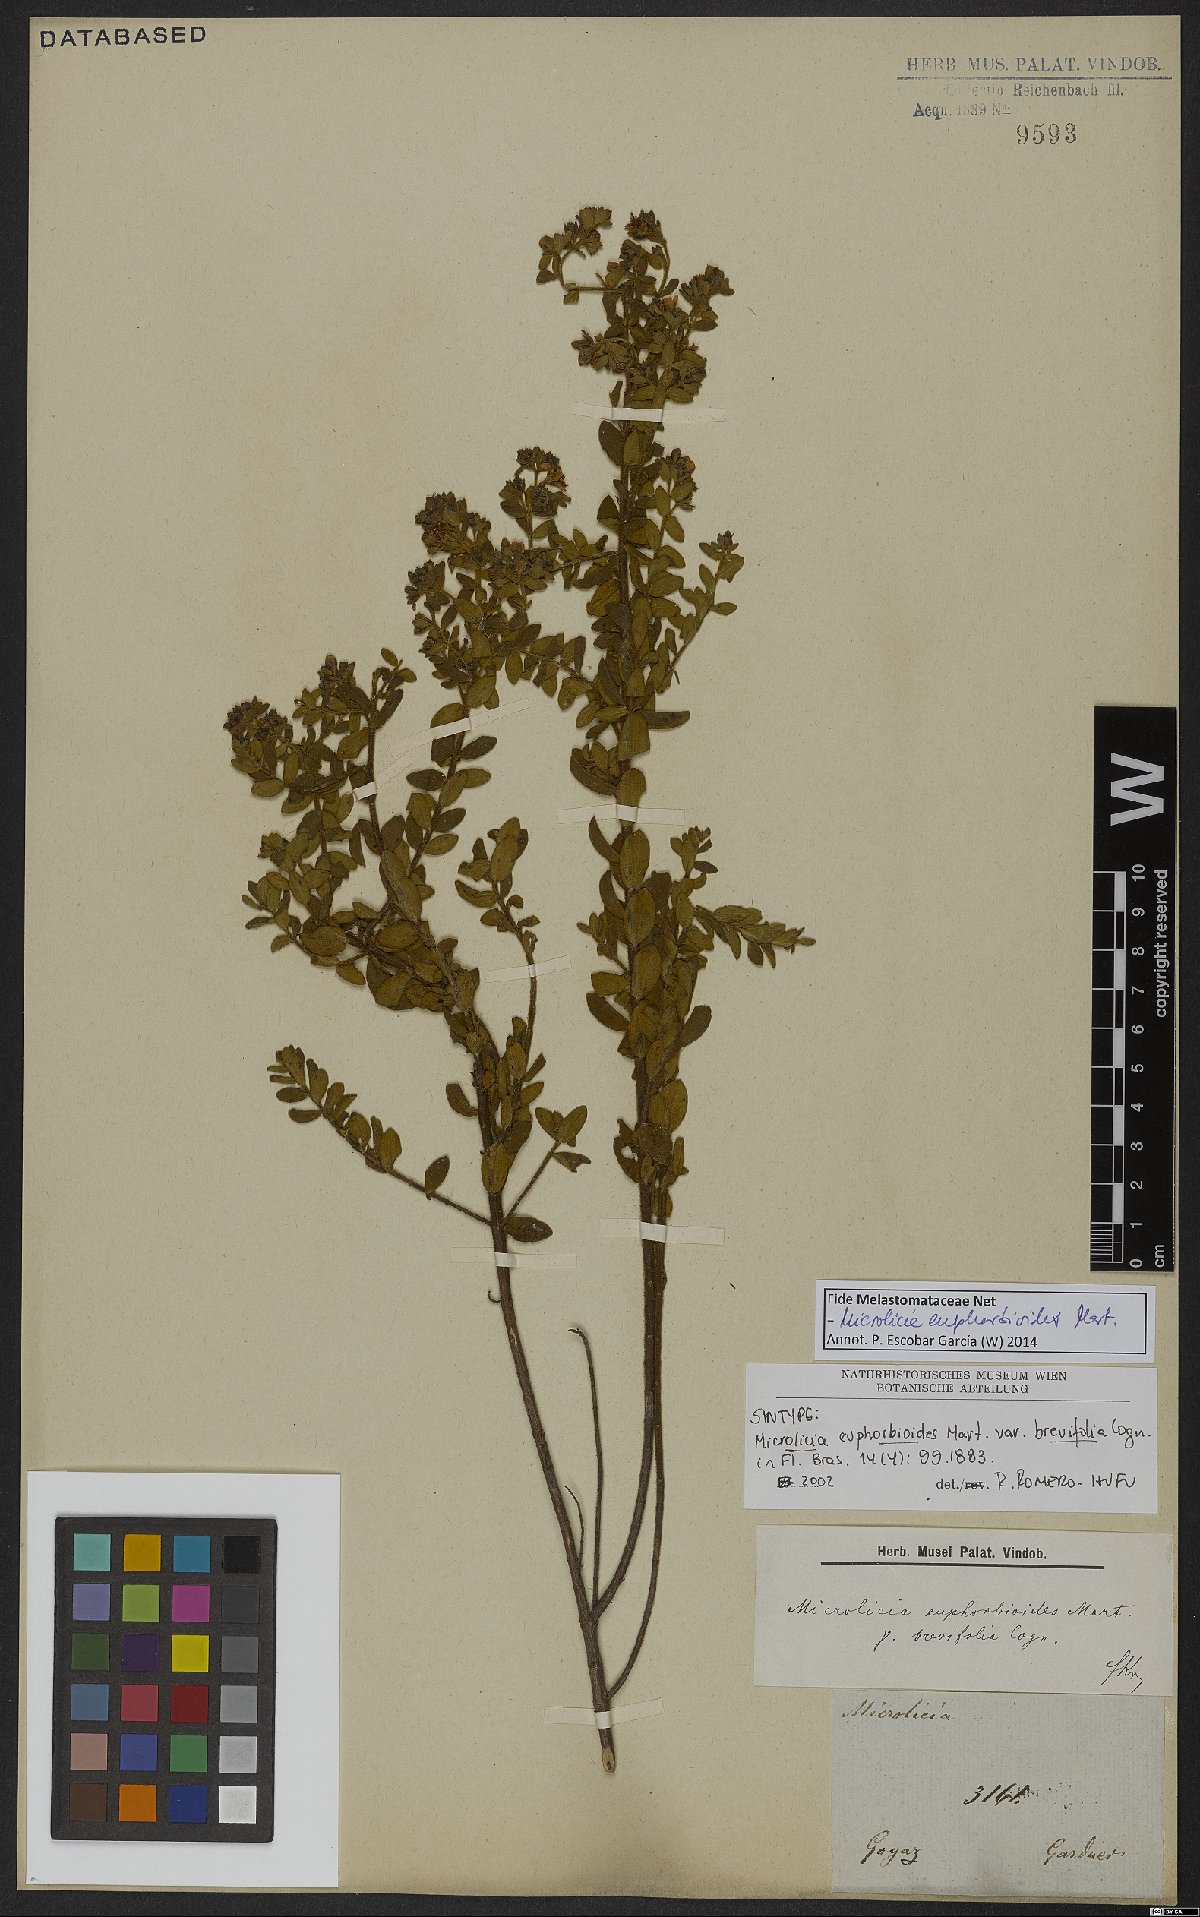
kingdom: Plantae
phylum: Tracheophyta
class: Magnoliopsida
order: Myrtales
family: Melastomataceae
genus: Microlicia
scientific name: Microlicia euphorbioides
